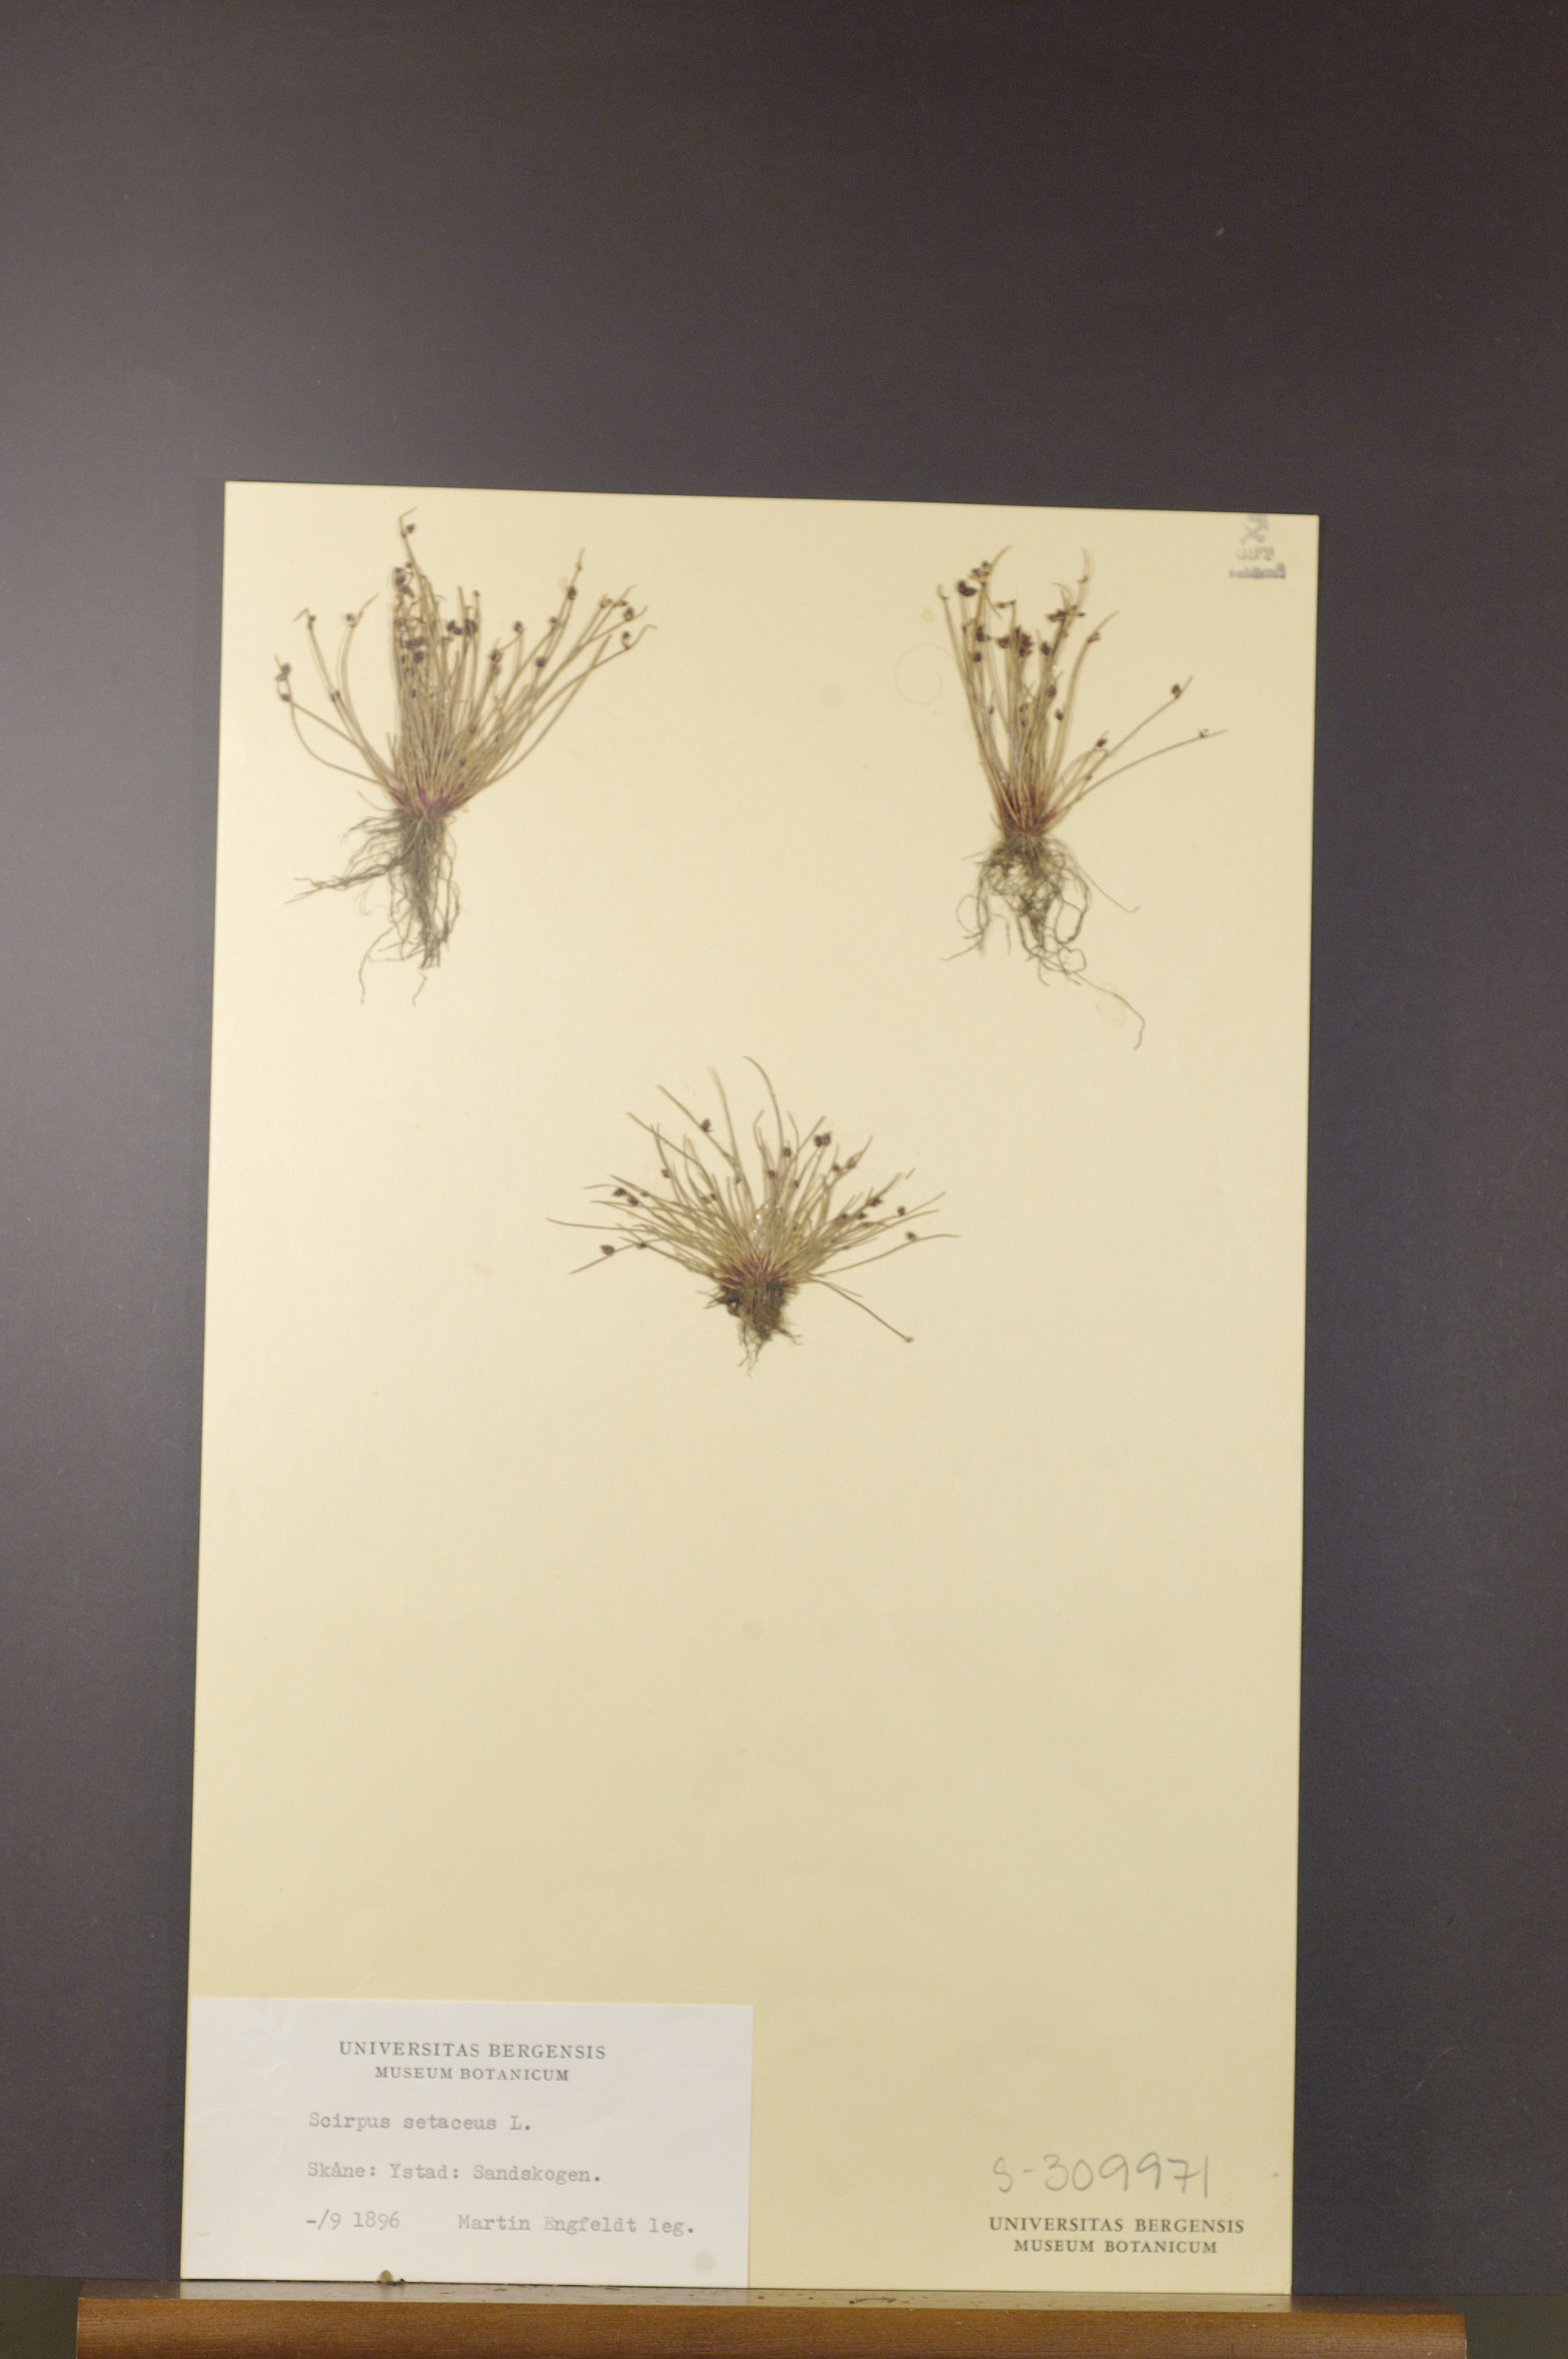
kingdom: Plantae
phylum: Tracheophyta
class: Liliopsida
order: Poales
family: Cyperaceae
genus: Isolepis
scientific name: Isolepis setacea
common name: Bristle club-rush
